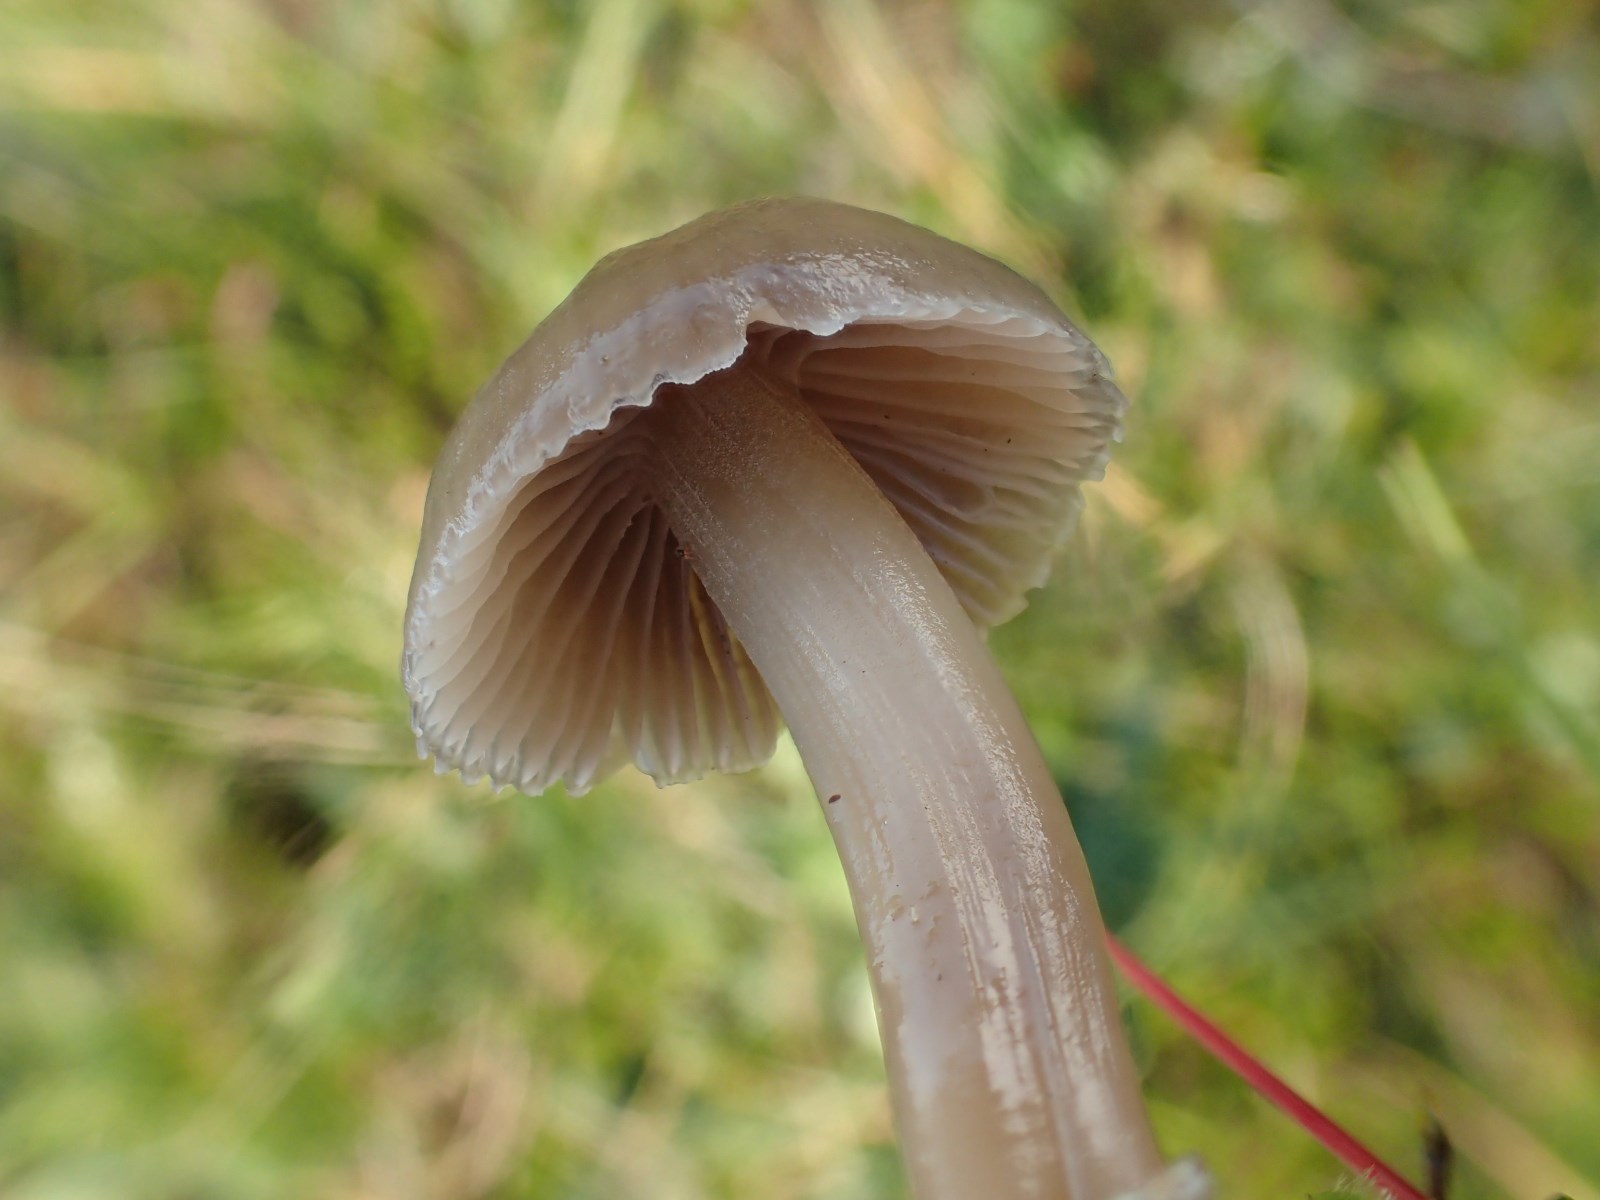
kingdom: Fungi
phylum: Basidiomycota
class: Agaricomycetes
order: Agaricales
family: Hygrophoraceae
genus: Gliophorus
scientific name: Gliophorus irrigatus
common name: slimet vokshat
